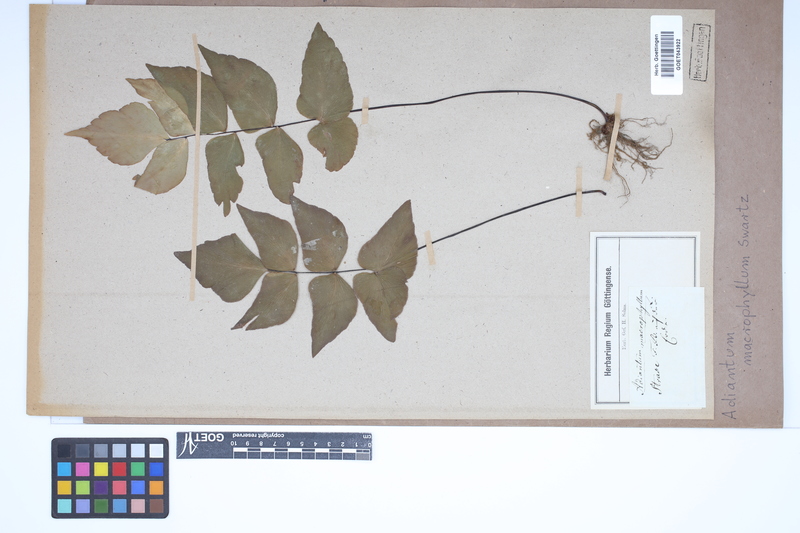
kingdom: Plantae
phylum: Tracheophyta
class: Polypodiopsida
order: Polypodiales
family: Pteridaceae
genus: Adiantum
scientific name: Adiantum macrophyllum
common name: Largeleaf maidenhair
